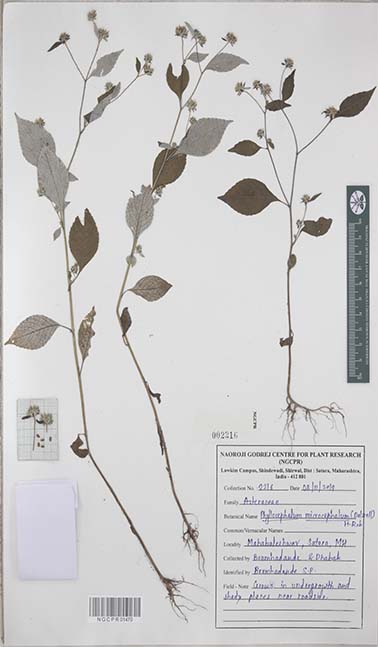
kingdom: Plantae
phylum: Tracheophyta
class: Magnoliopsida
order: Asterales
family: Asteraceae
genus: Phyllocephalum
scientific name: Phyllocephalum microcephalum
